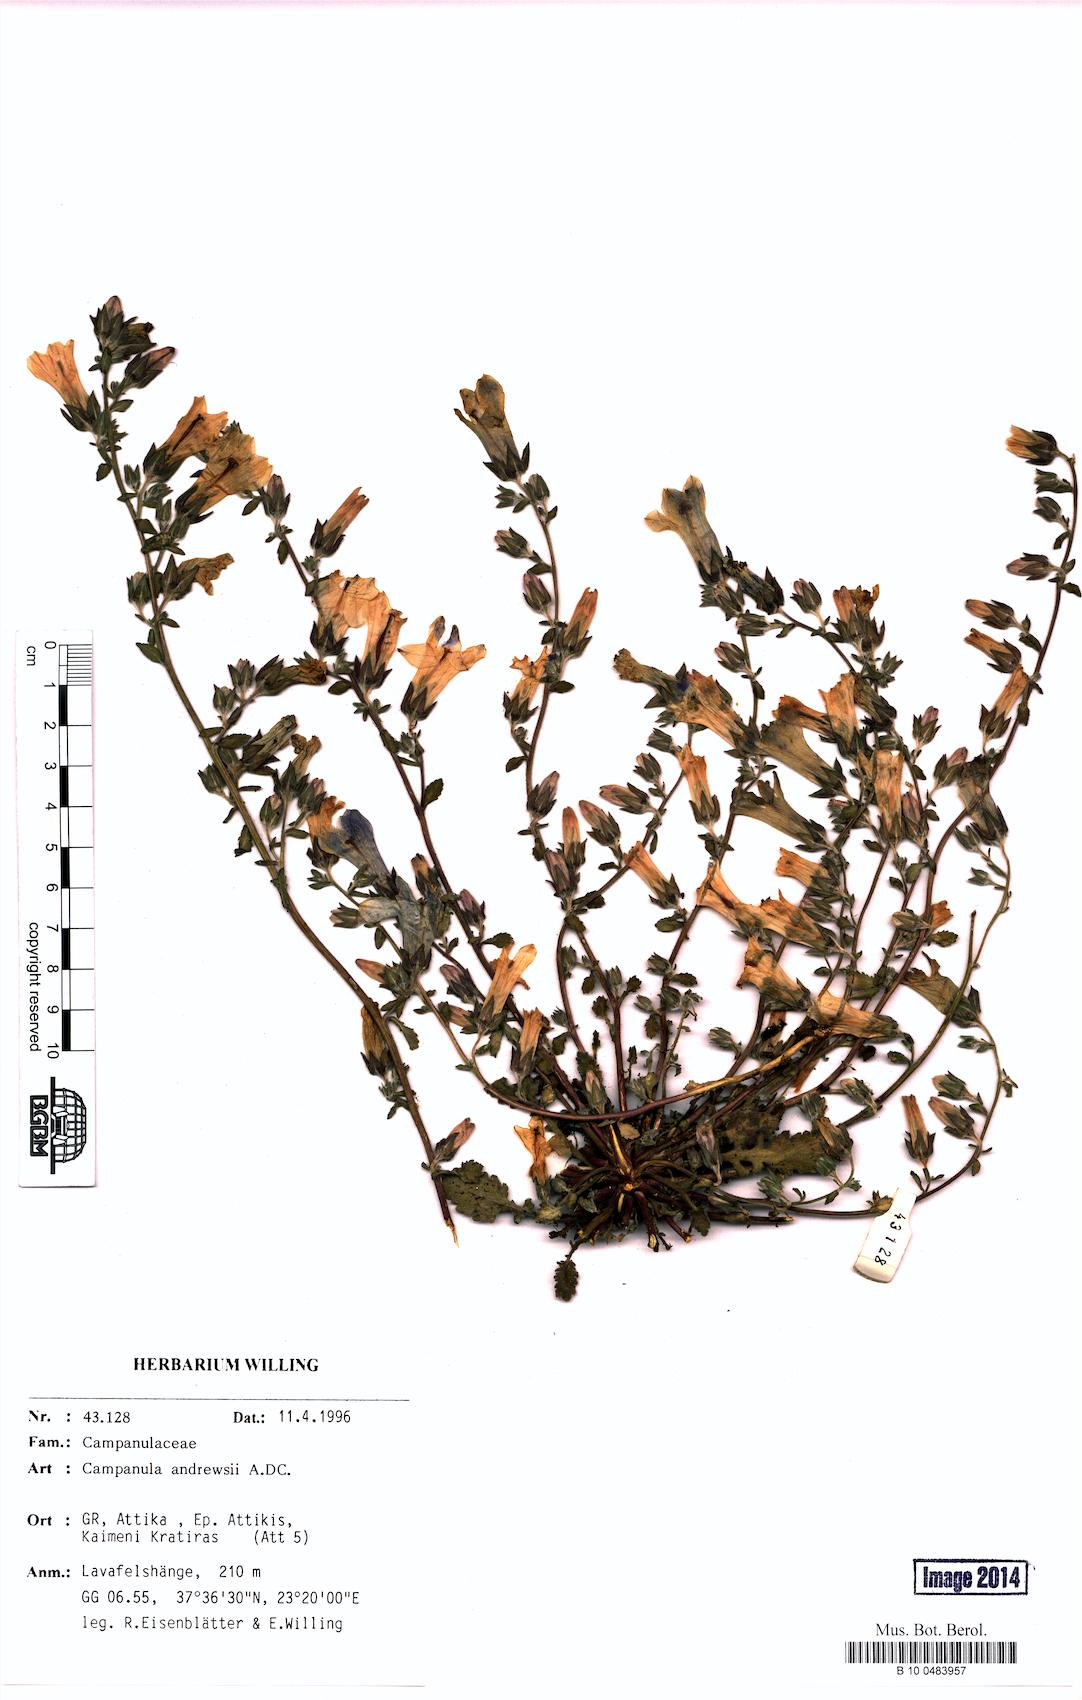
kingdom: Plantae
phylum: Tracheophyta
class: Magnoliopsida
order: Asterales
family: Campanulaceae
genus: Campanula
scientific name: Campanula andrewsii
